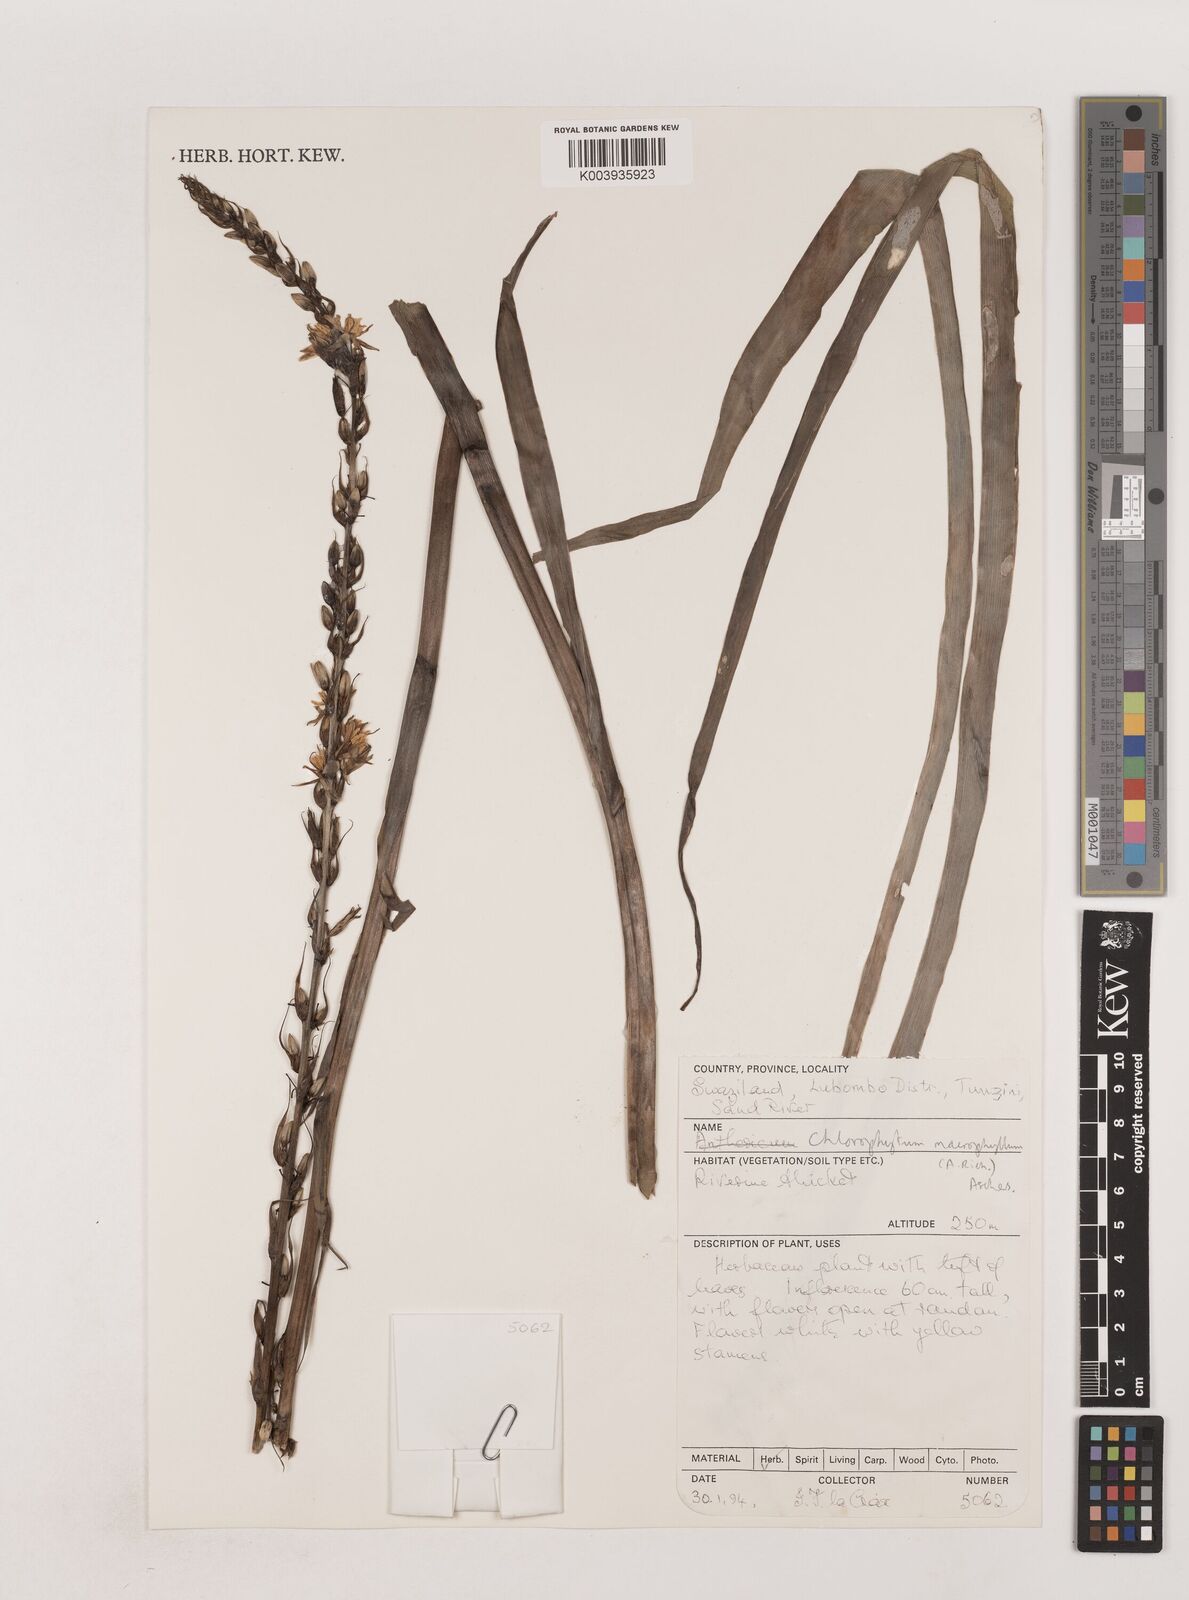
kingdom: Plantae
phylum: Tracheophyta
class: Liliopsida
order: Asparagales
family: Asparagaceae
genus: Chlorophytum
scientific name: Chlorophytum macrophyllum
